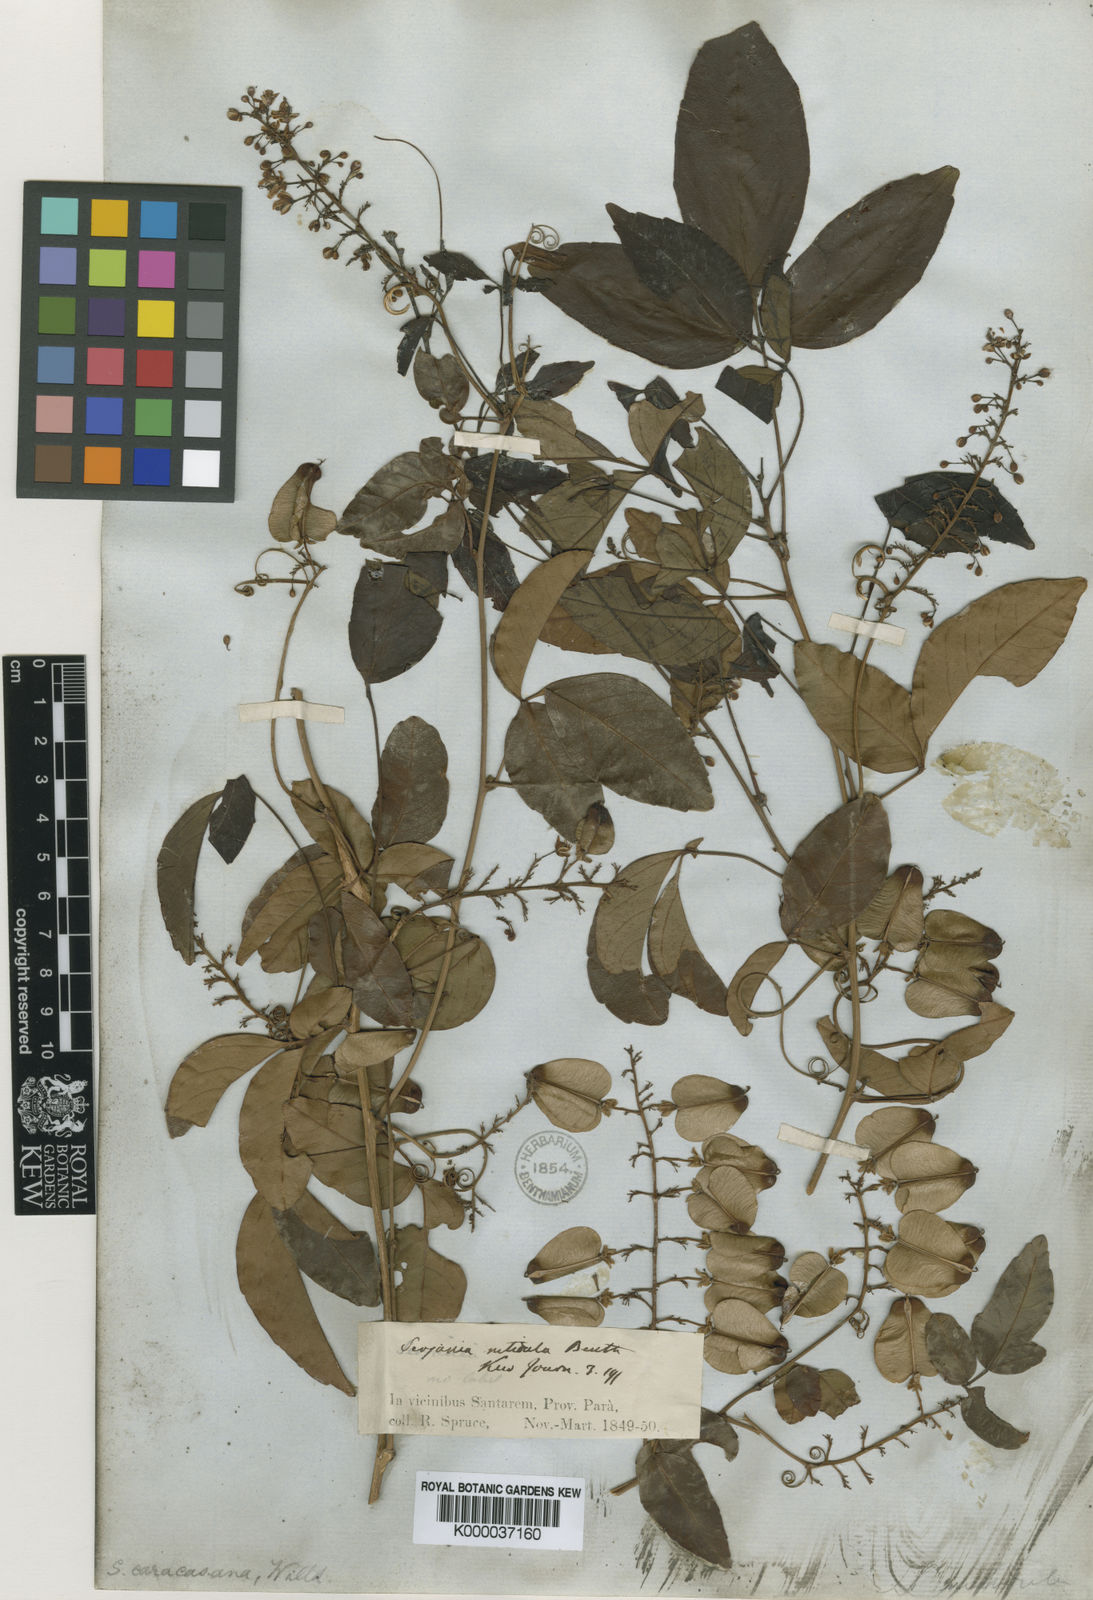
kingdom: Plantae
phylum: Tracheophyta
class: Magnoliopsida
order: Sapindales
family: Sapindaceae
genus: Serjania
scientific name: Serjania
